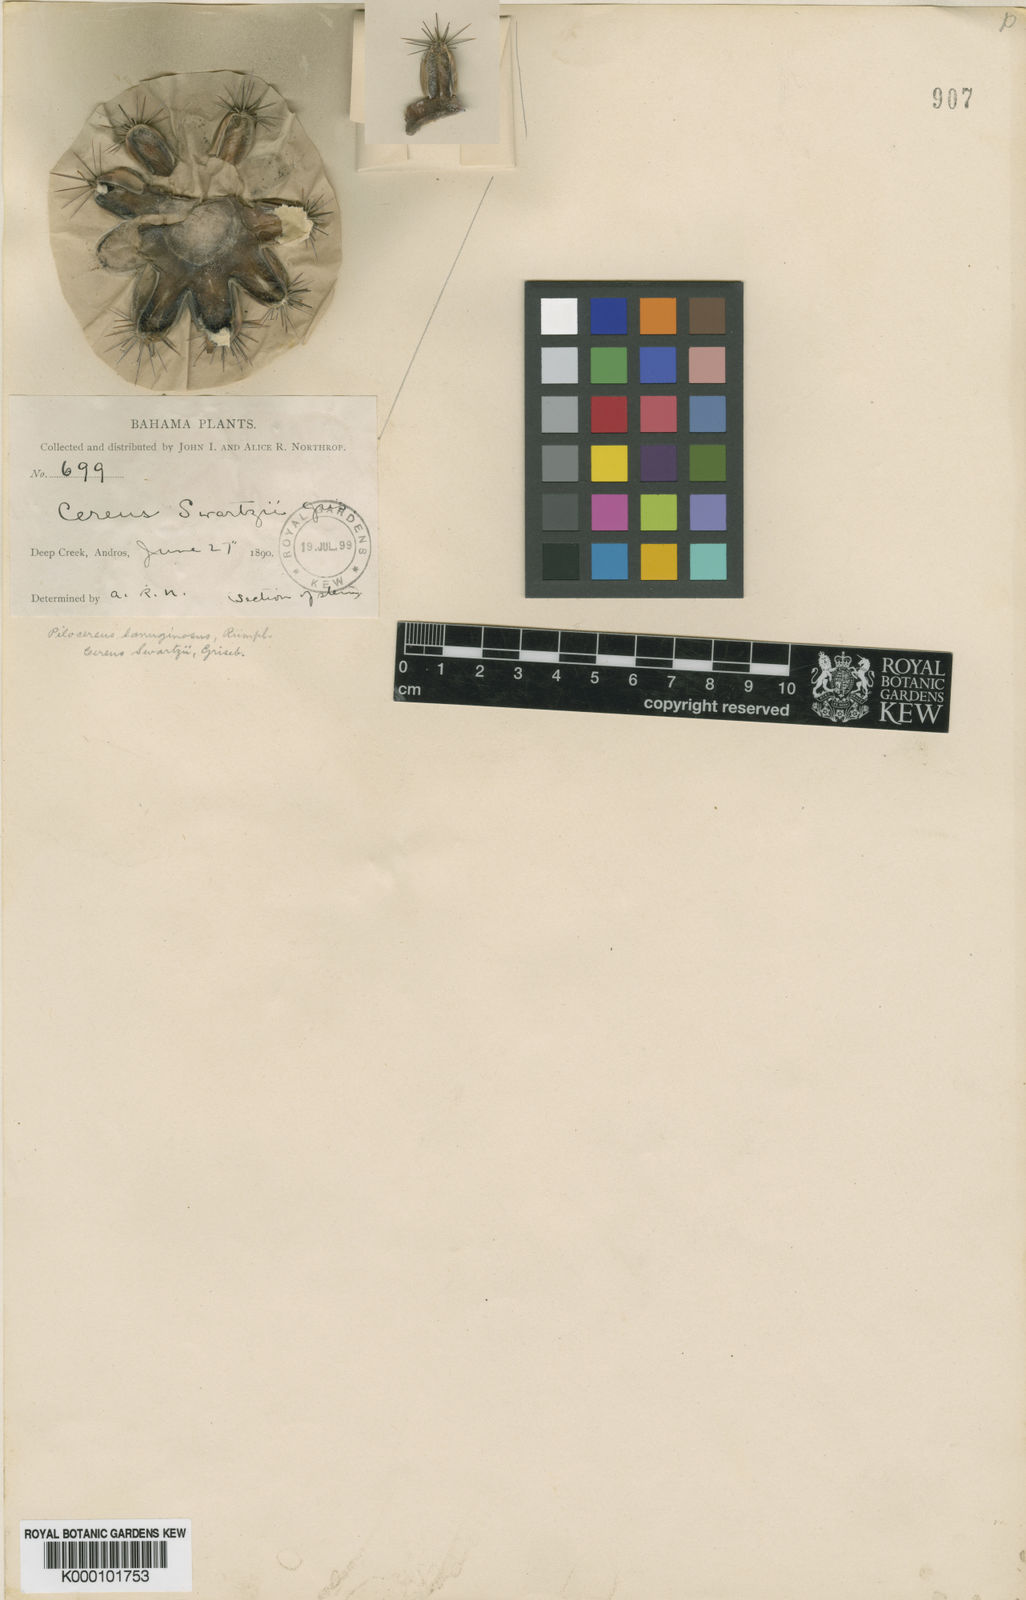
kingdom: Plantae
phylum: Tracheophyta
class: Magnoliopsida
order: Caryophyllales
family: Cactaceae
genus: Pilosocereus
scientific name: Pilosocereus polygonus
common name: Key tree cactus
